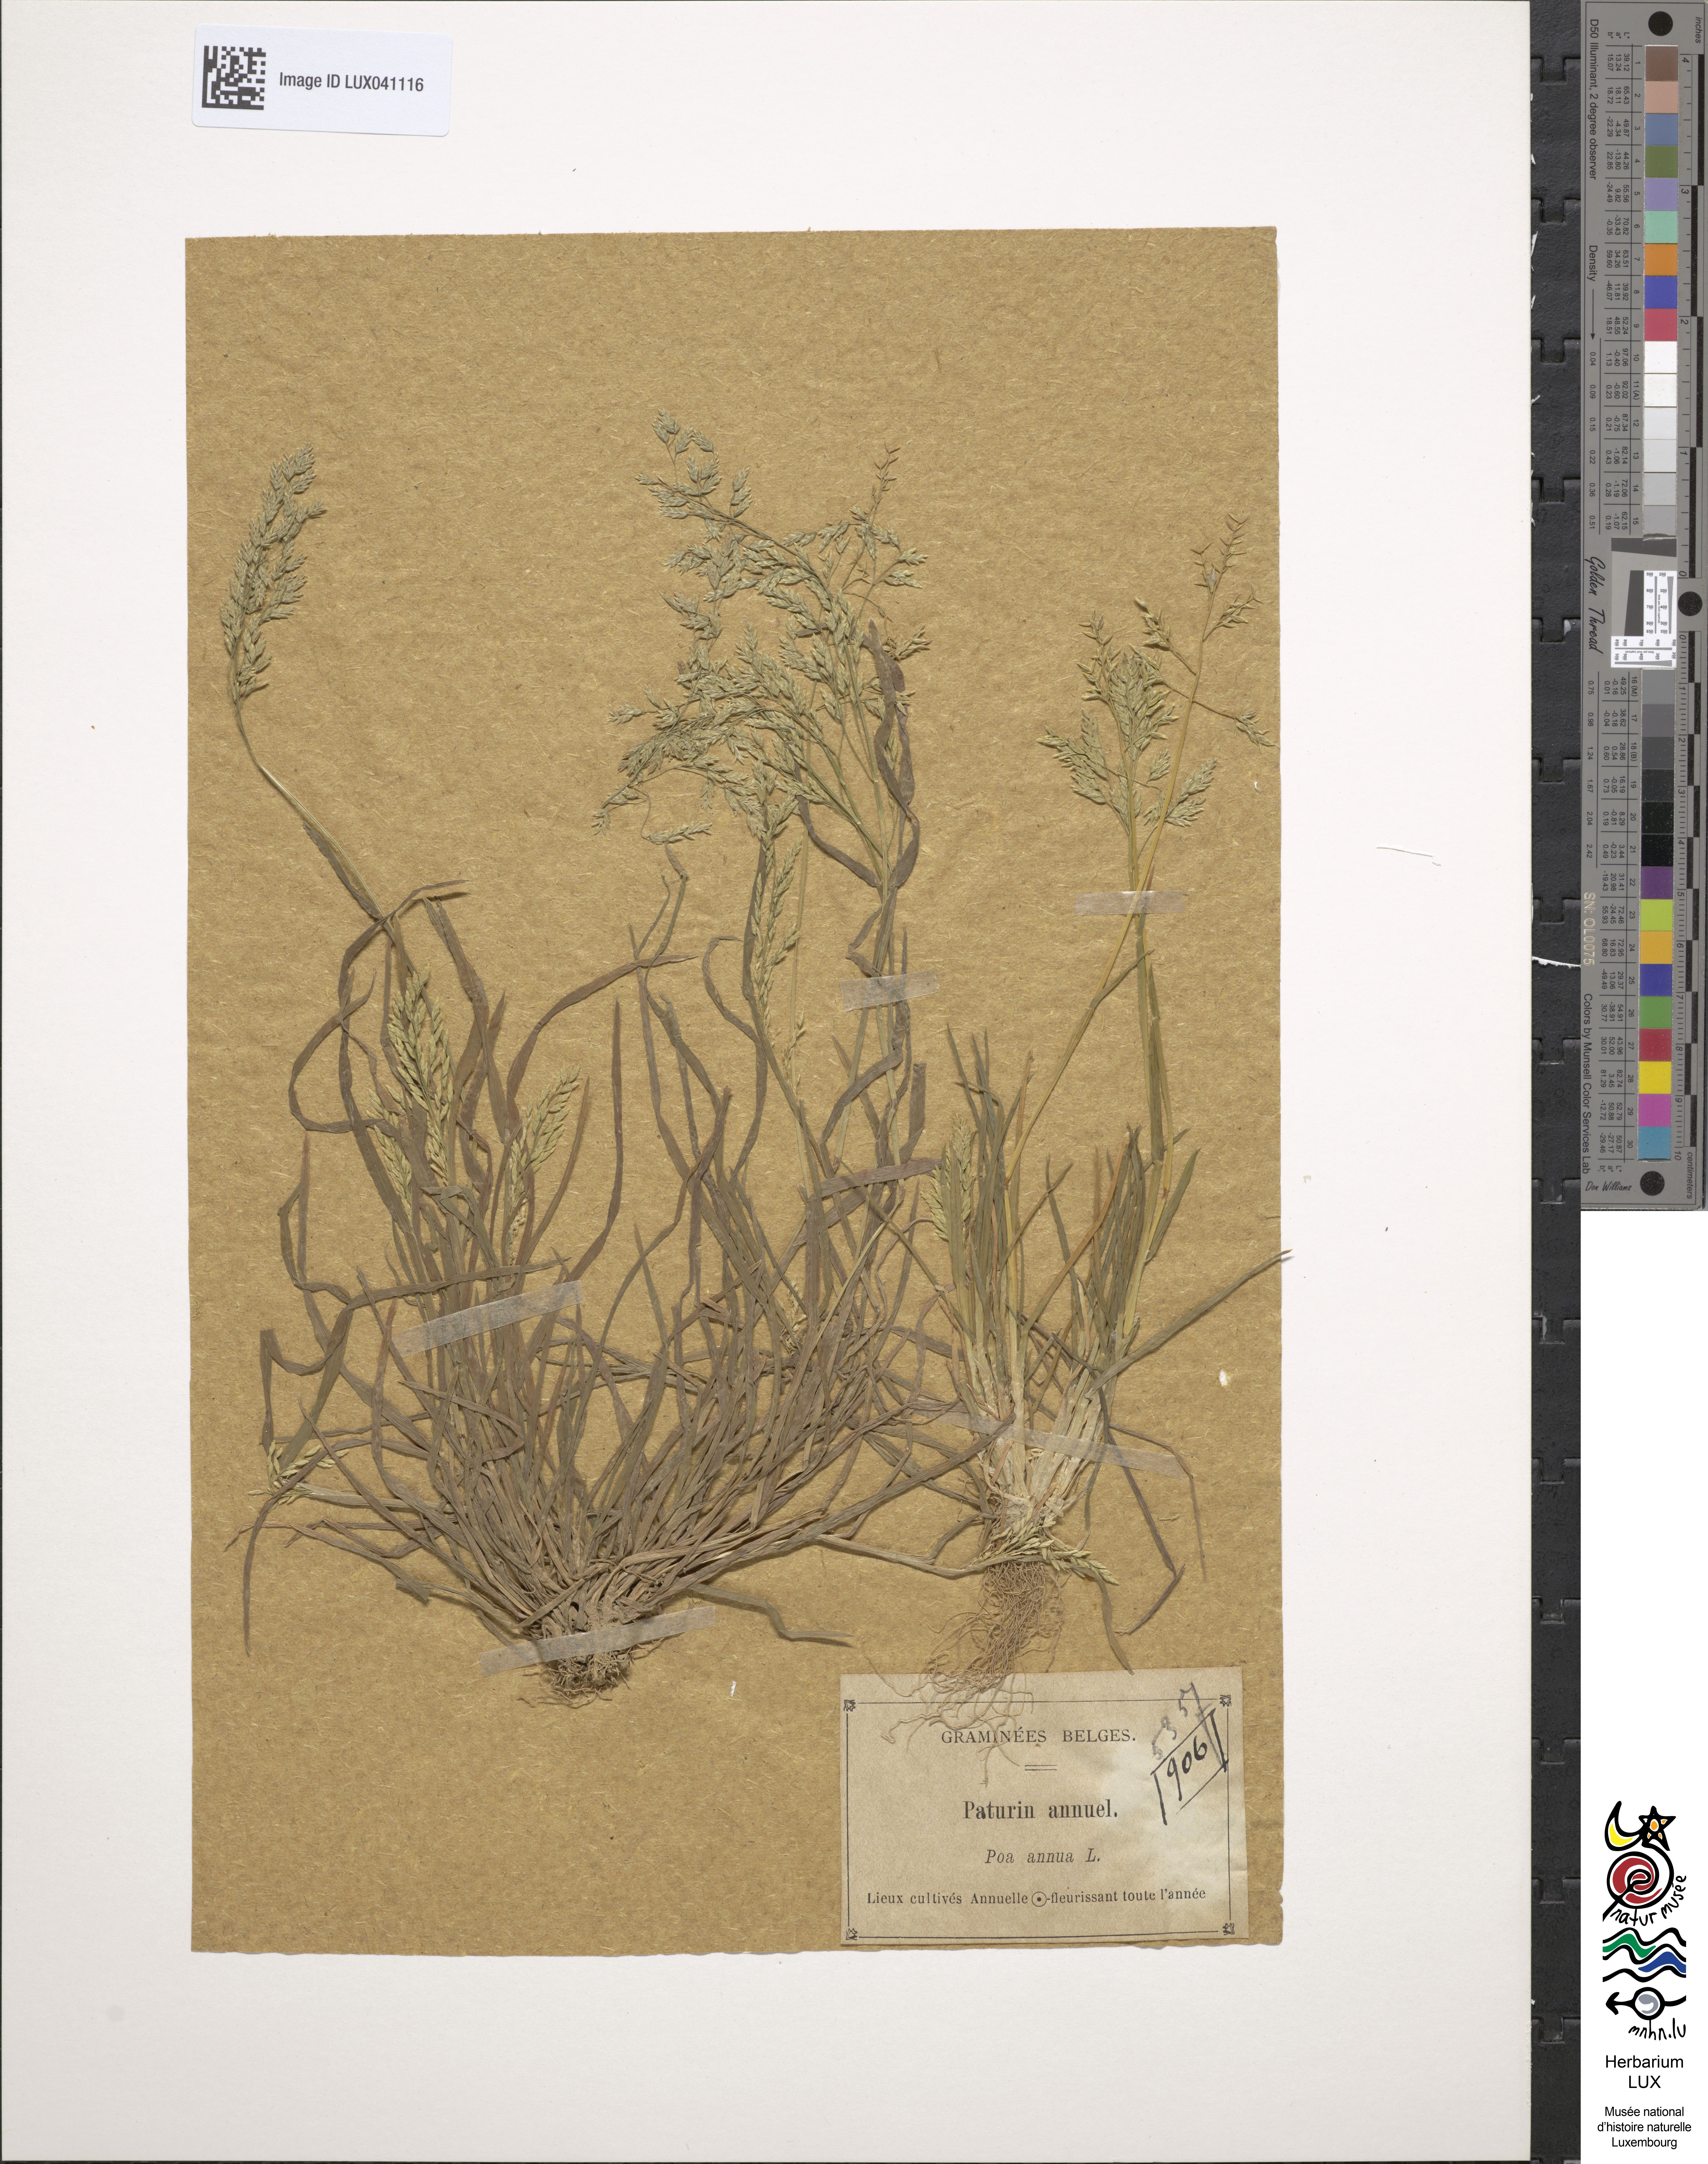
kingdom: Plantae
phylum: Tracheophyta
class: Liliopsida
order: Poales
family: Poaceae
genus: Poa
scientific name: Poa annua
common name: Annual bluegrass
